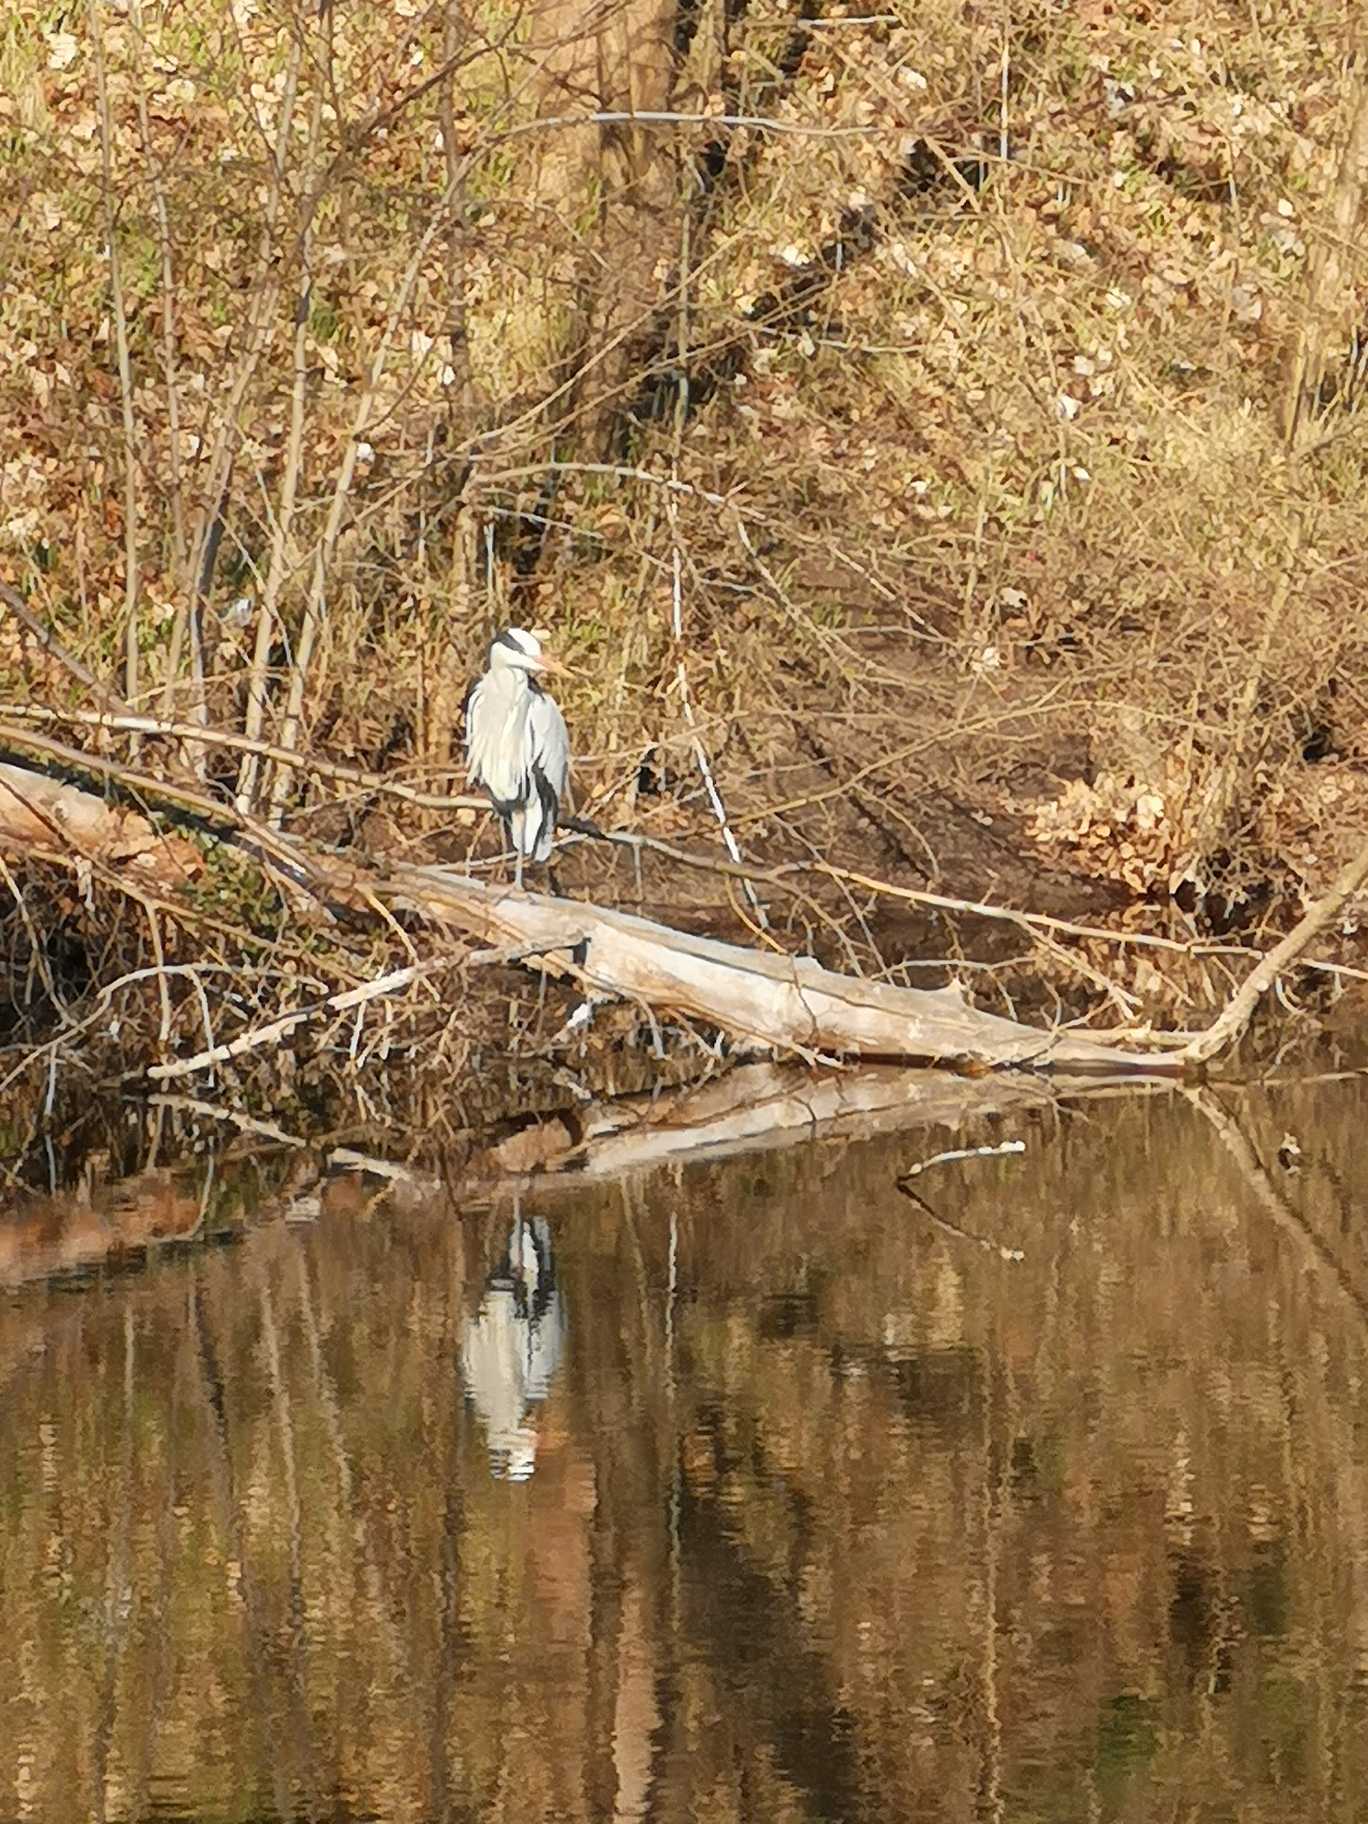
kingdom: Animalia
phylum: Chordata
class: Aves
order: Pelecaniformes
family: Ardeidae
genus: Ardea
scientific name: Ardea cinerea
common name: Fiskehejre
